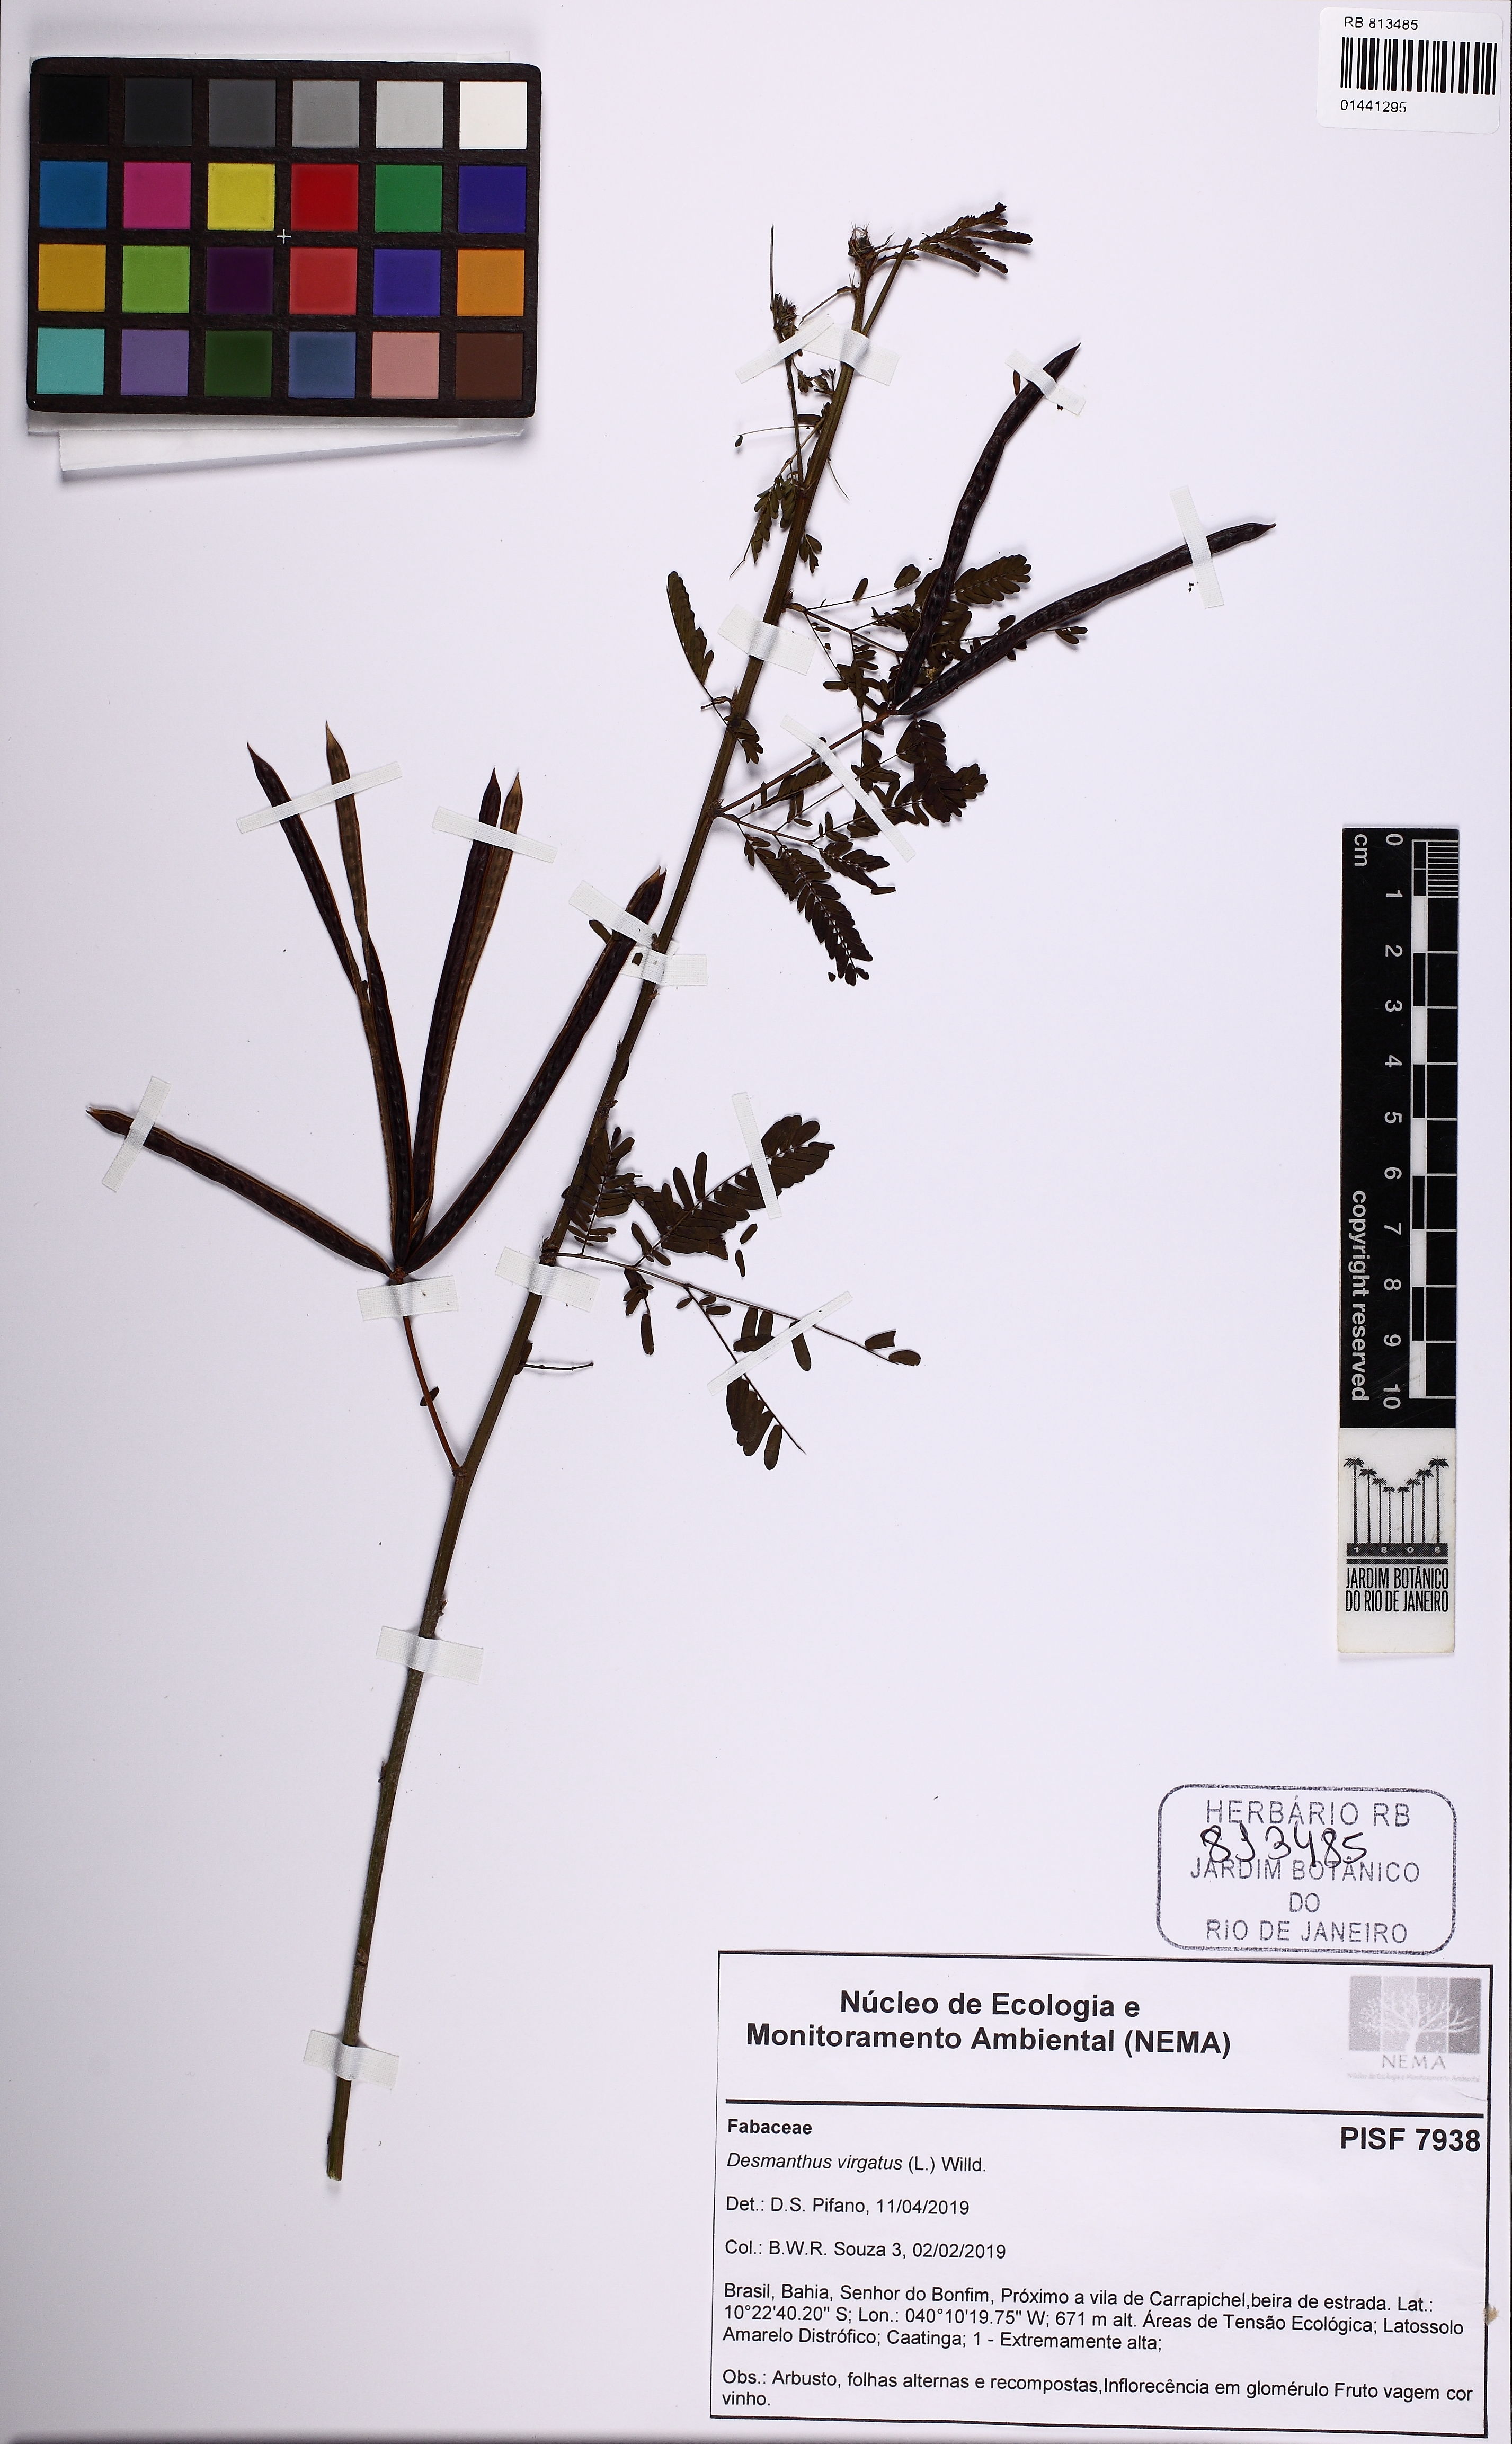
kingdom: Plantae
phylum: Tracheophyta
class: Magnoliopsida
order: Fabales
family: Fabaceae
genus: Desmanthus
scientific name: Desmanthus virgatus
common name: Wild tantan
